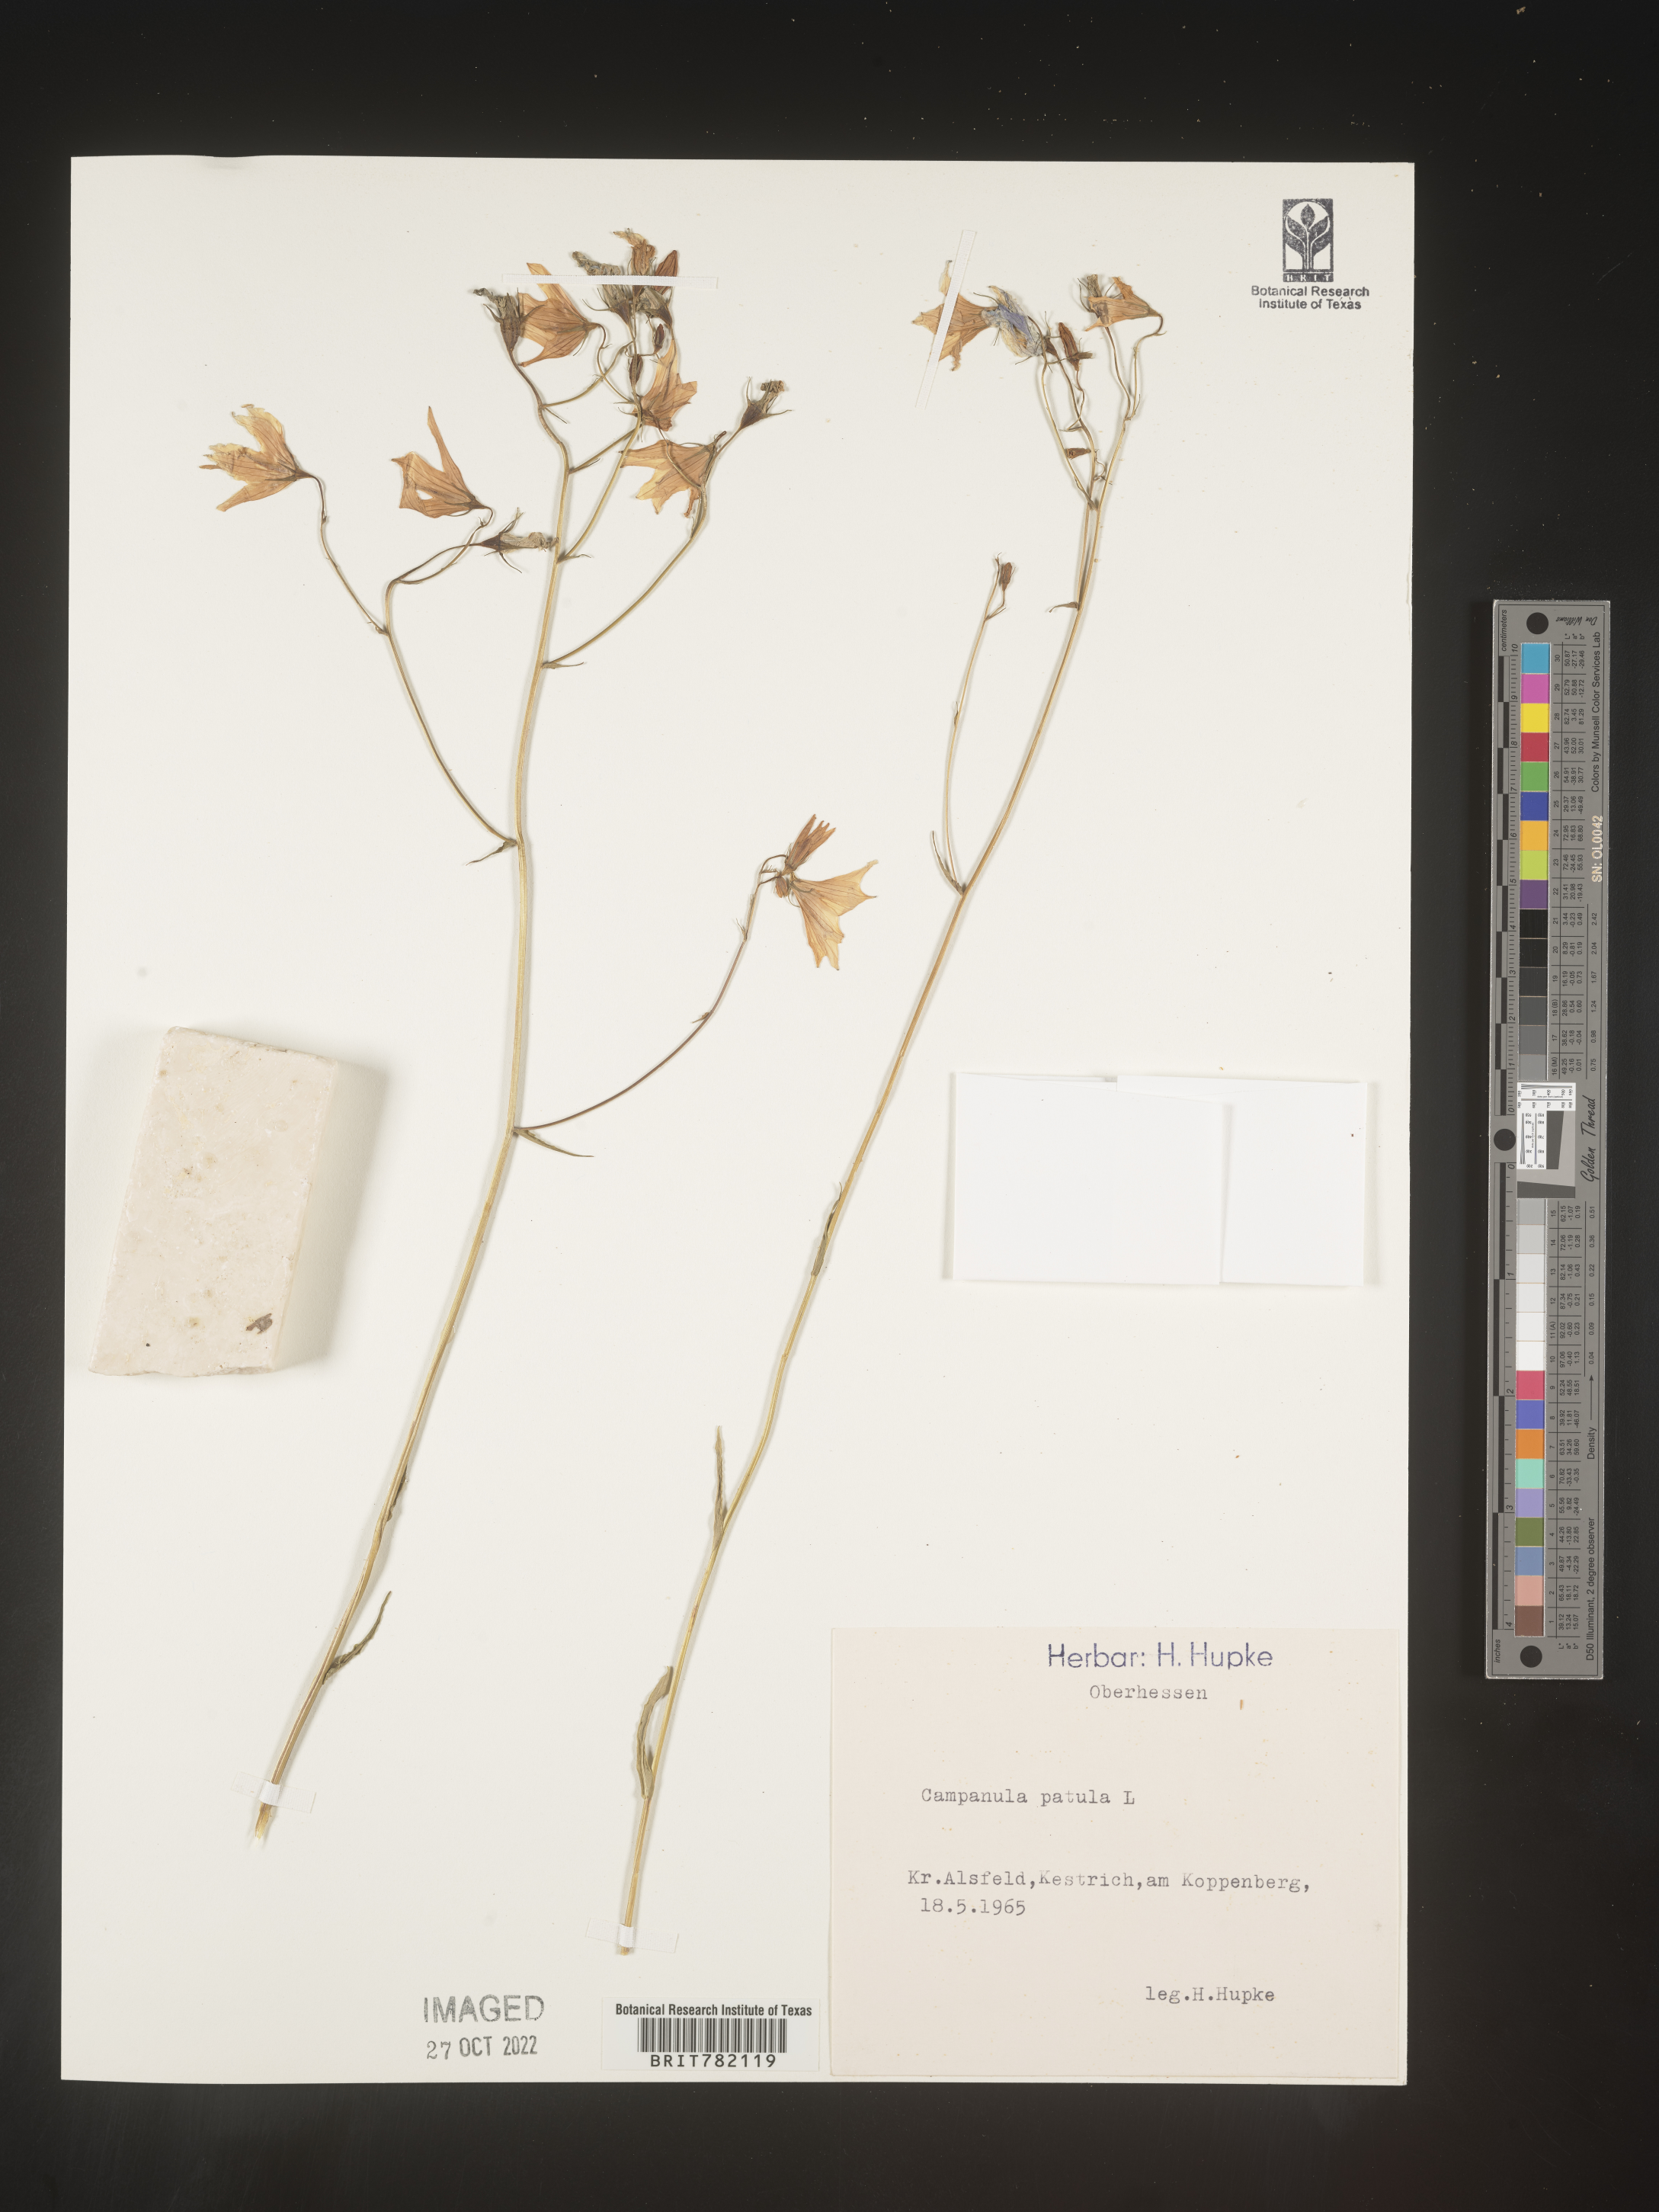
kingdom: Plantae
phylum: Tracheophyta
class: Magnoliopsida
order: Asterales
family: Campanulaceae
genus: Campanula
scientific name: Campanula
